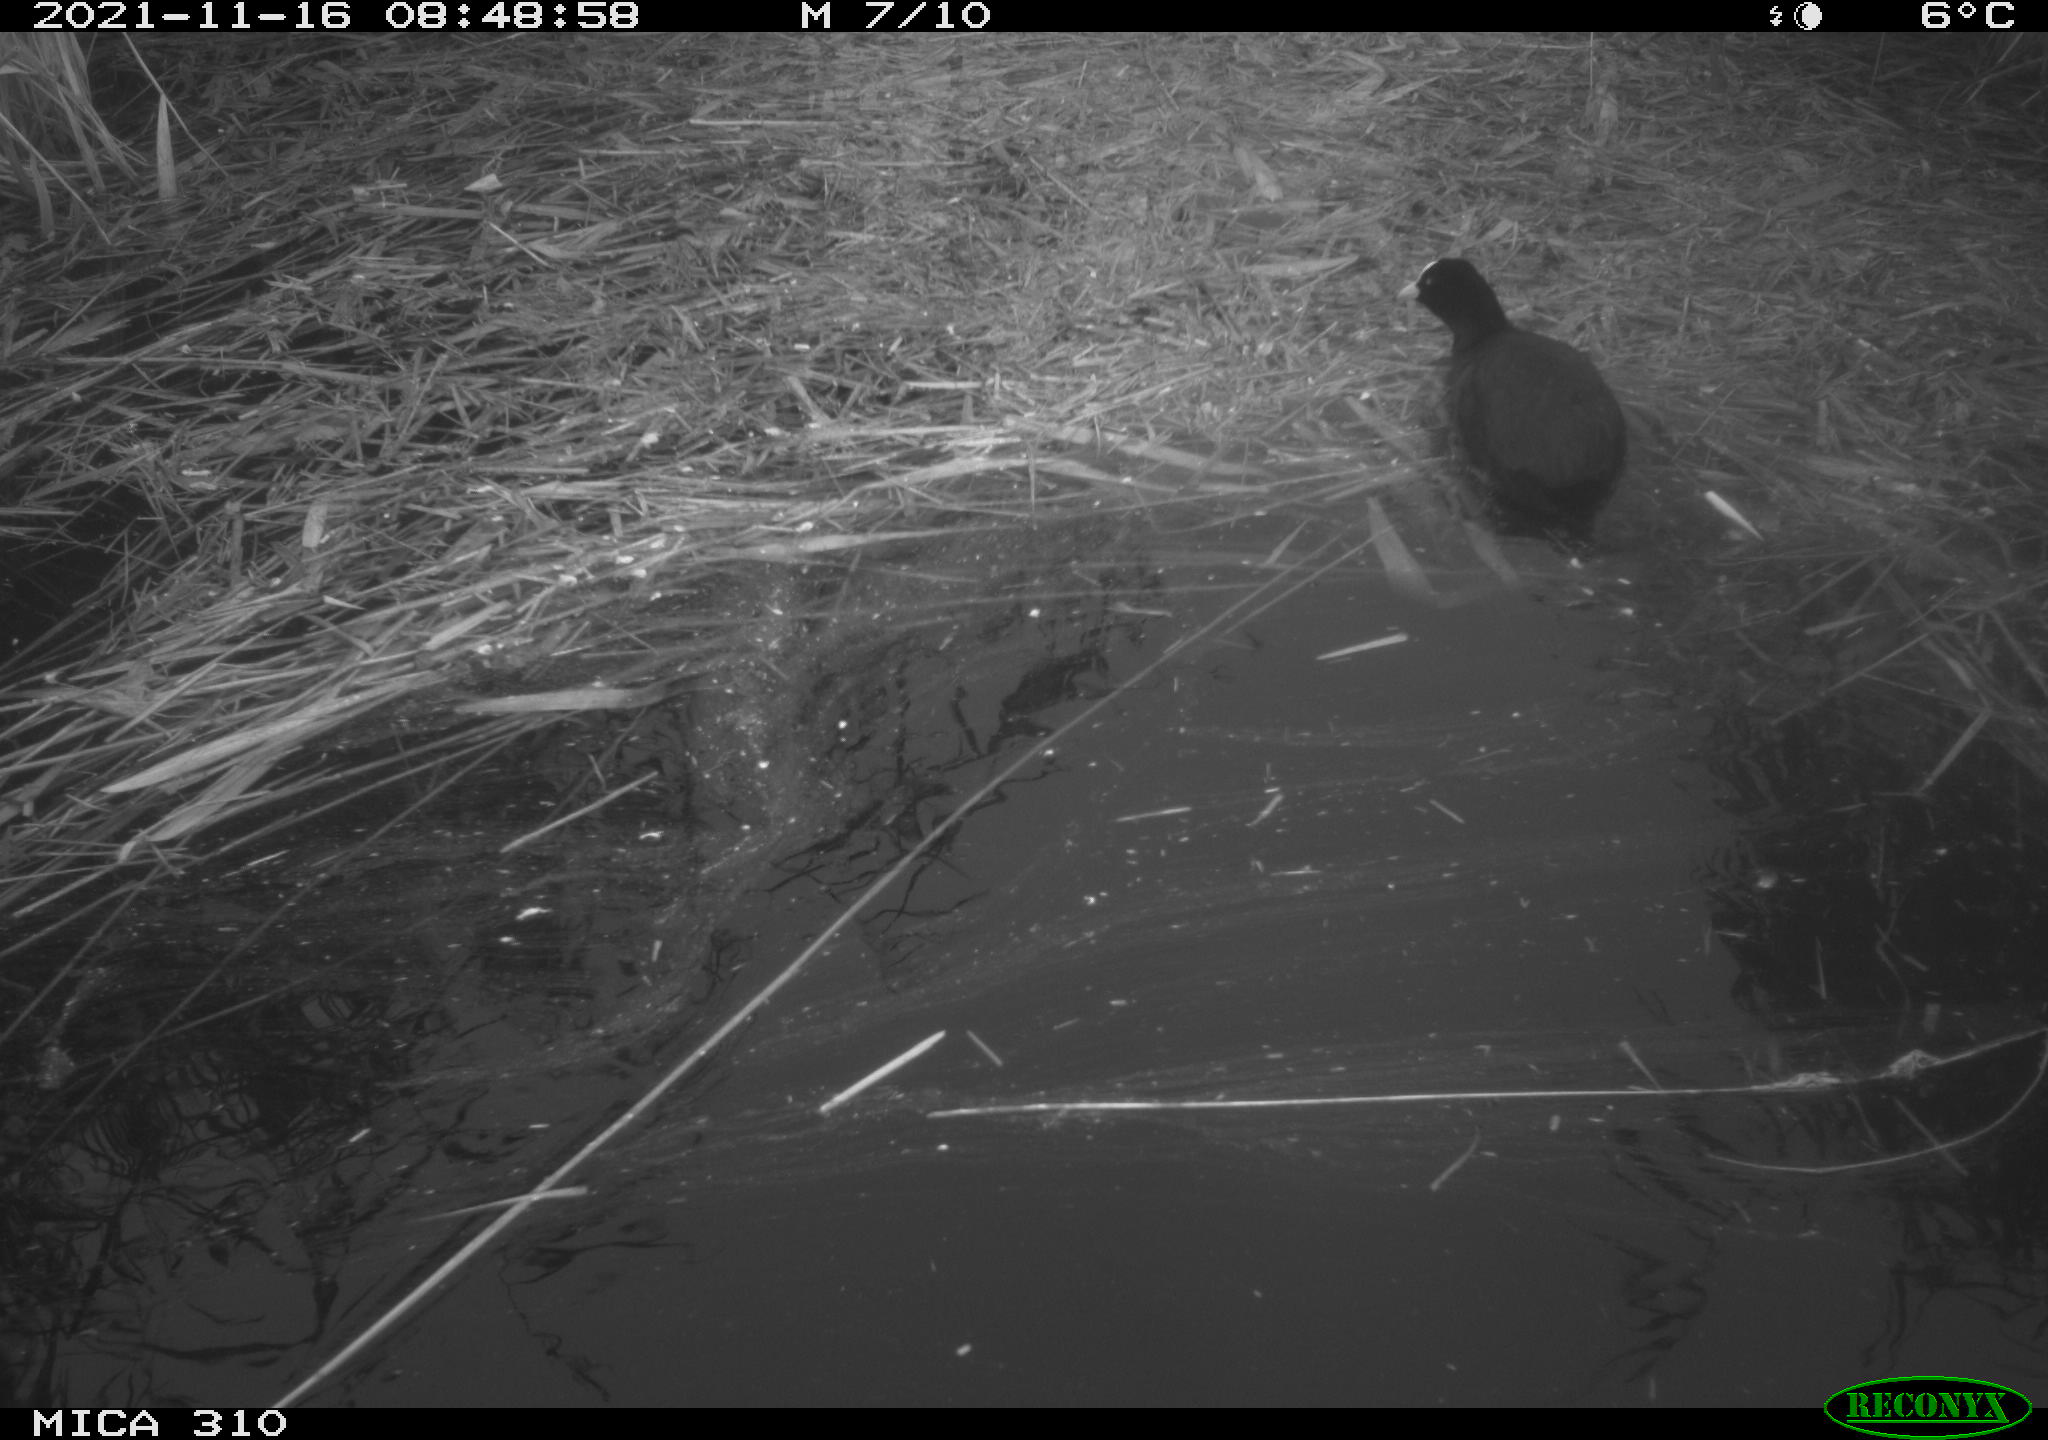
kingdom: Animalia
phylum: Chordata
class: Aves
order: Gruiformes
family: Rallidae
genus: Fulica
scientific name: Fulica atra
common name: Eurasian coot
